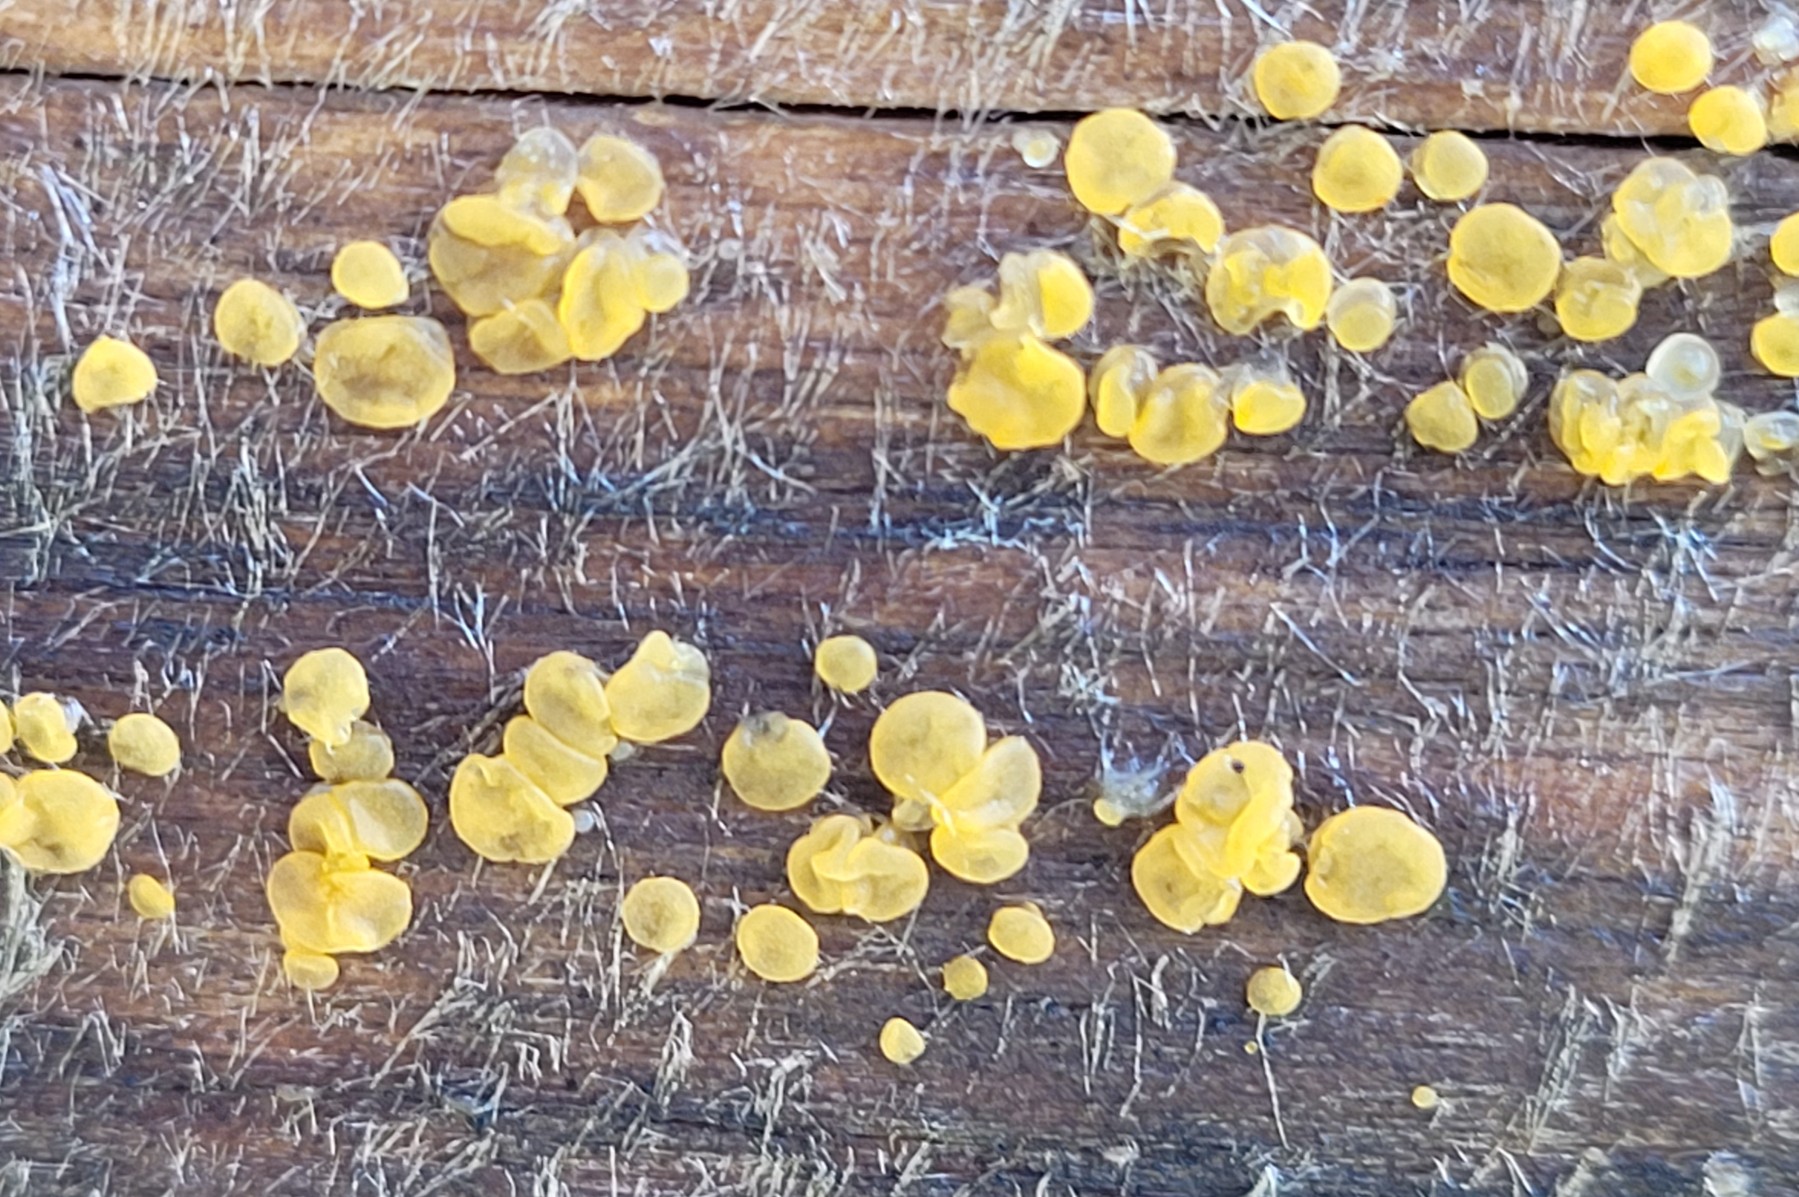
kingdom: Fungi
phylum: Basidiomycota
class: Dacrymycetes
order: Dacrymycetales
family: Dacrymycetaceae
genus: Dacrymyces
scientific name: Dacrymyces lacrymalis
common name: rynket tåresvamp
